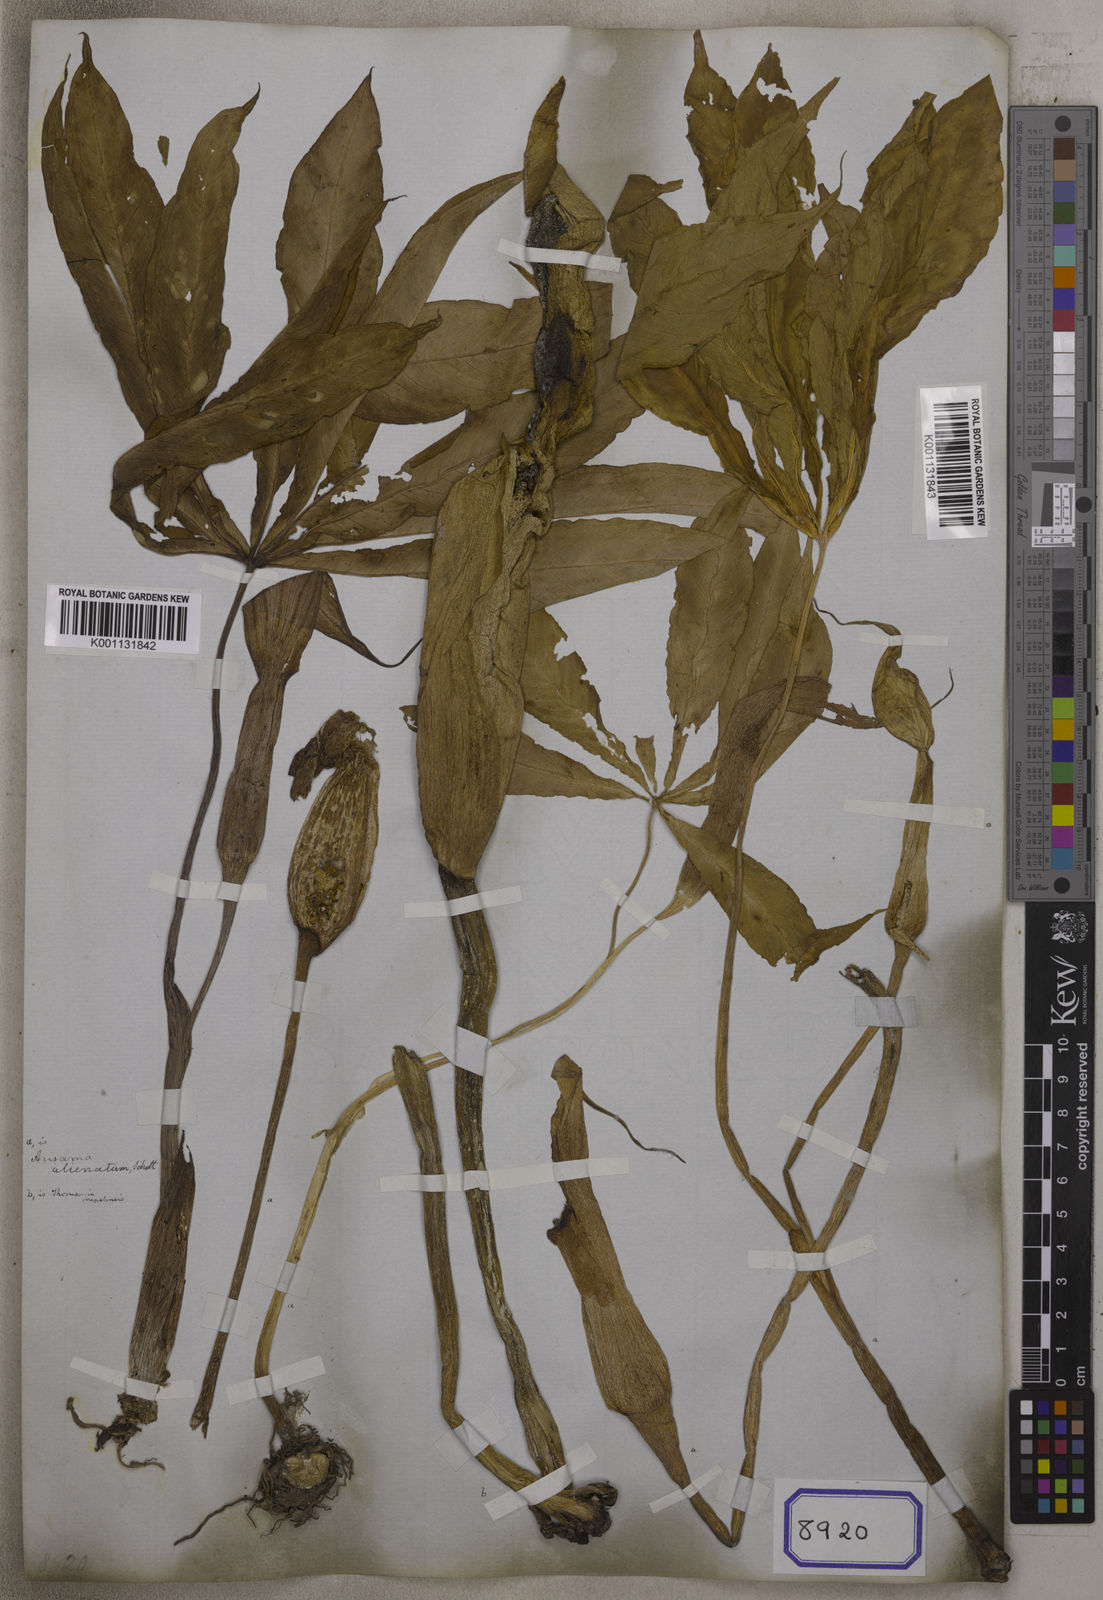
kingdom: Plantae
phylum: Tracheophyta
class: Liliopsida
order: Alismatales
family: Araceae
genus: Arisaema
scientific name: Arisaema
